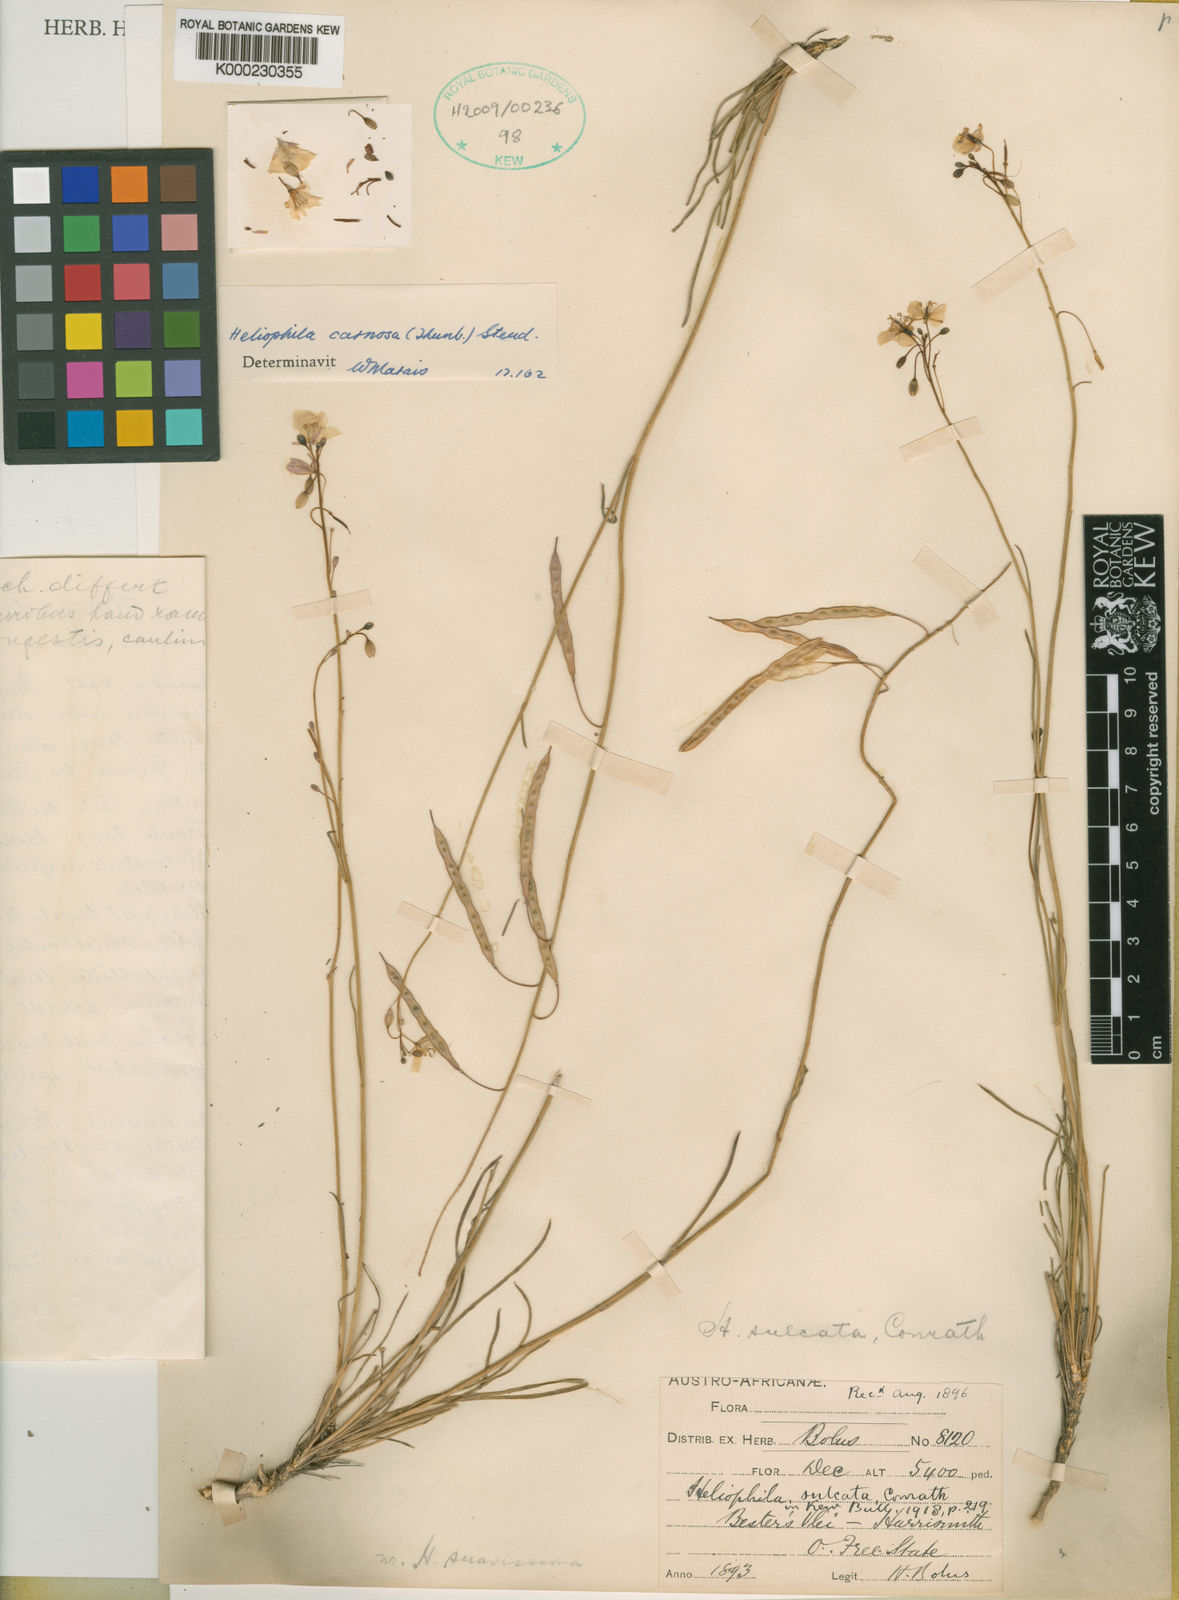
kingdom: Plantae
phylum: Tracheophyta
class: Magnoliopsida
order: Brassicales
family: Brassicaceae
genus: Heliophila
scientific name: Heliophila carnosa
